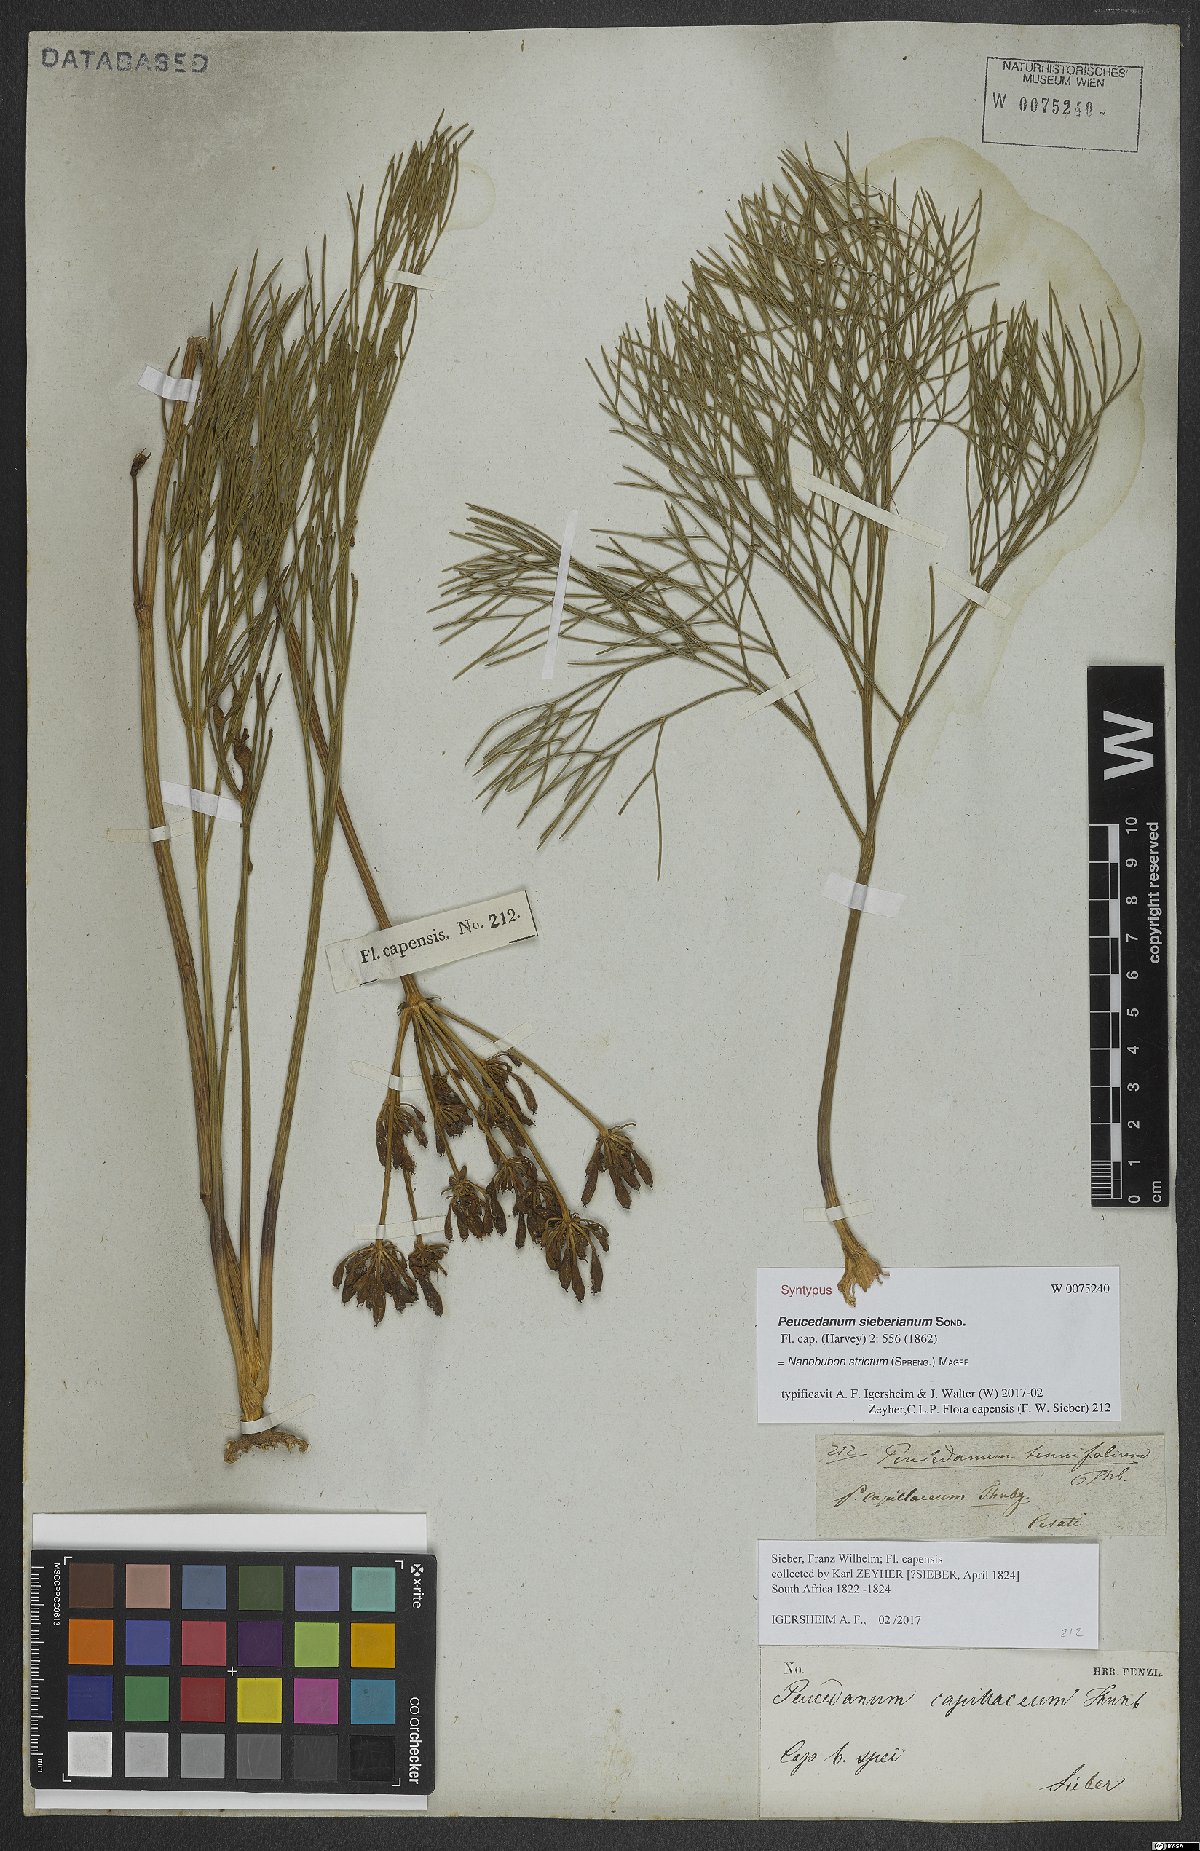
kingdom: Plantae
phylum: Tracheophyta
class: Magnoliopsida
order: Apiales
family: Apiaceae
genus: Nanobubon
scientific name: Nanobubon strictum
